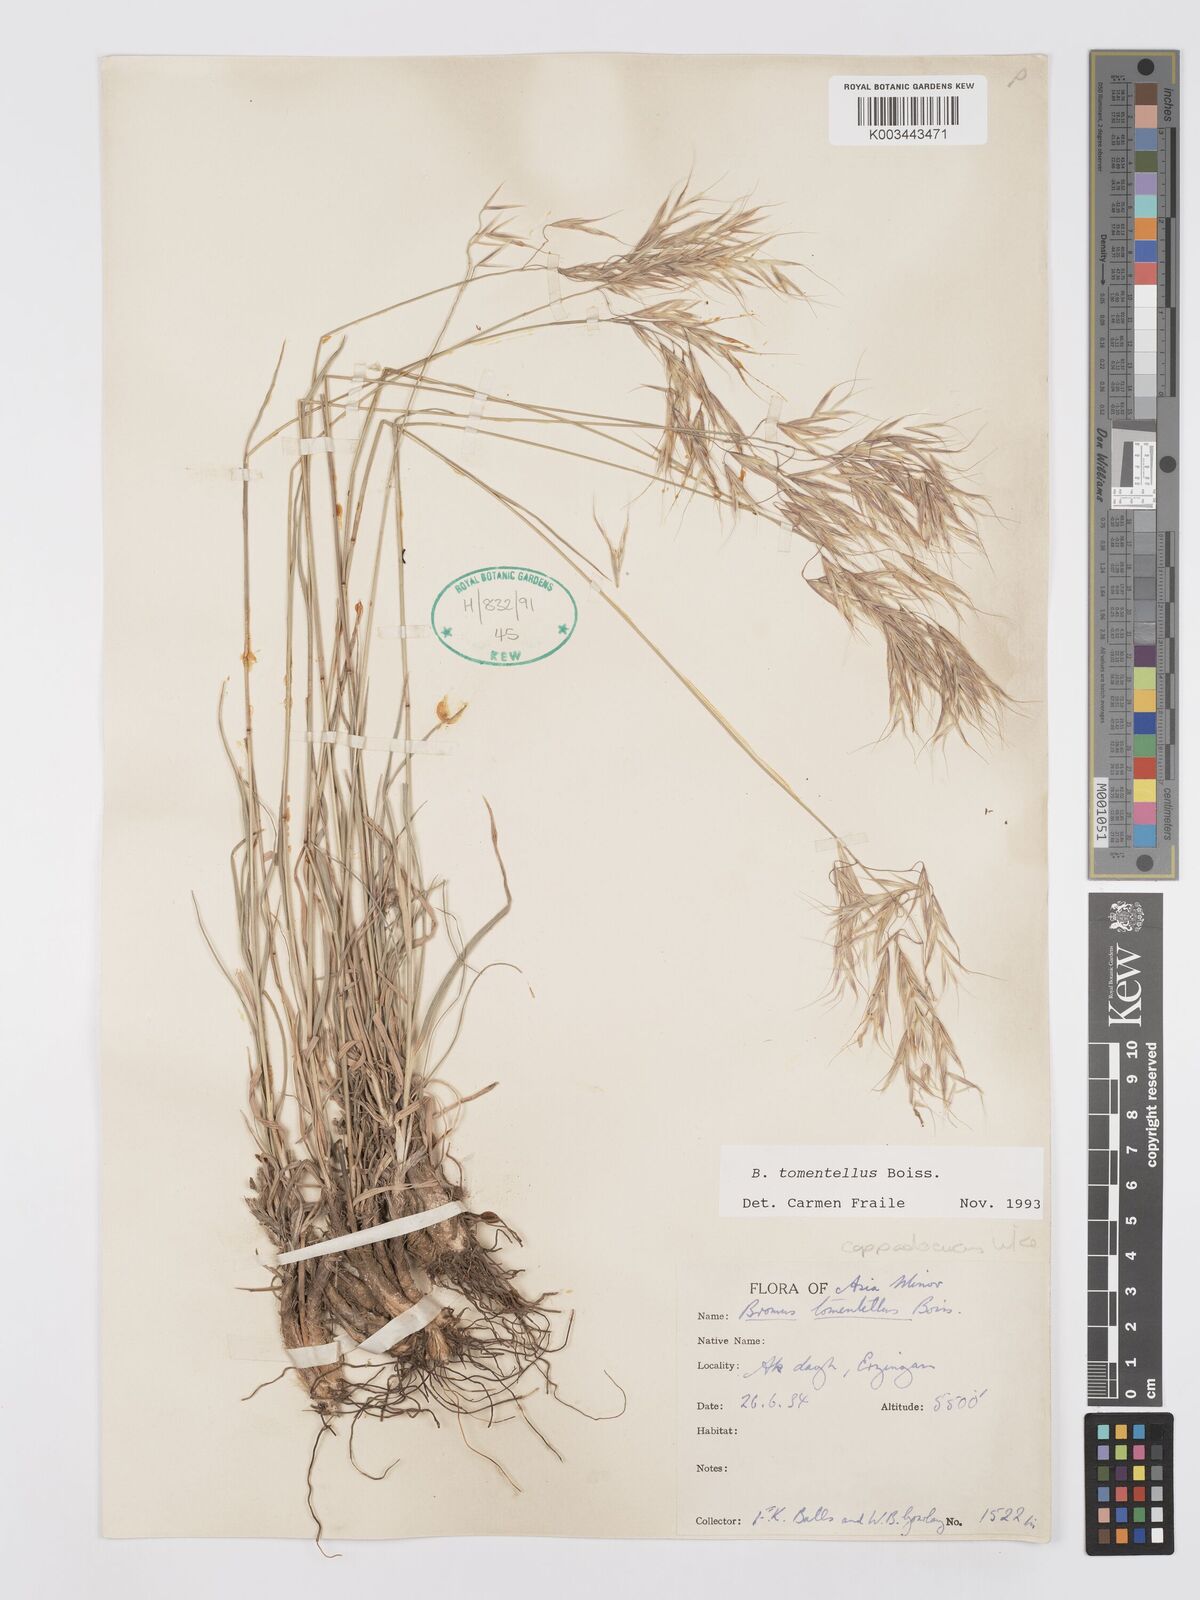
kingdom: Plantae
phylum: Tracheophyta
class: Liliopsida
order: Poales
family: Poaceae
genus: Bromus
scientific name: Bromus tomentellus
